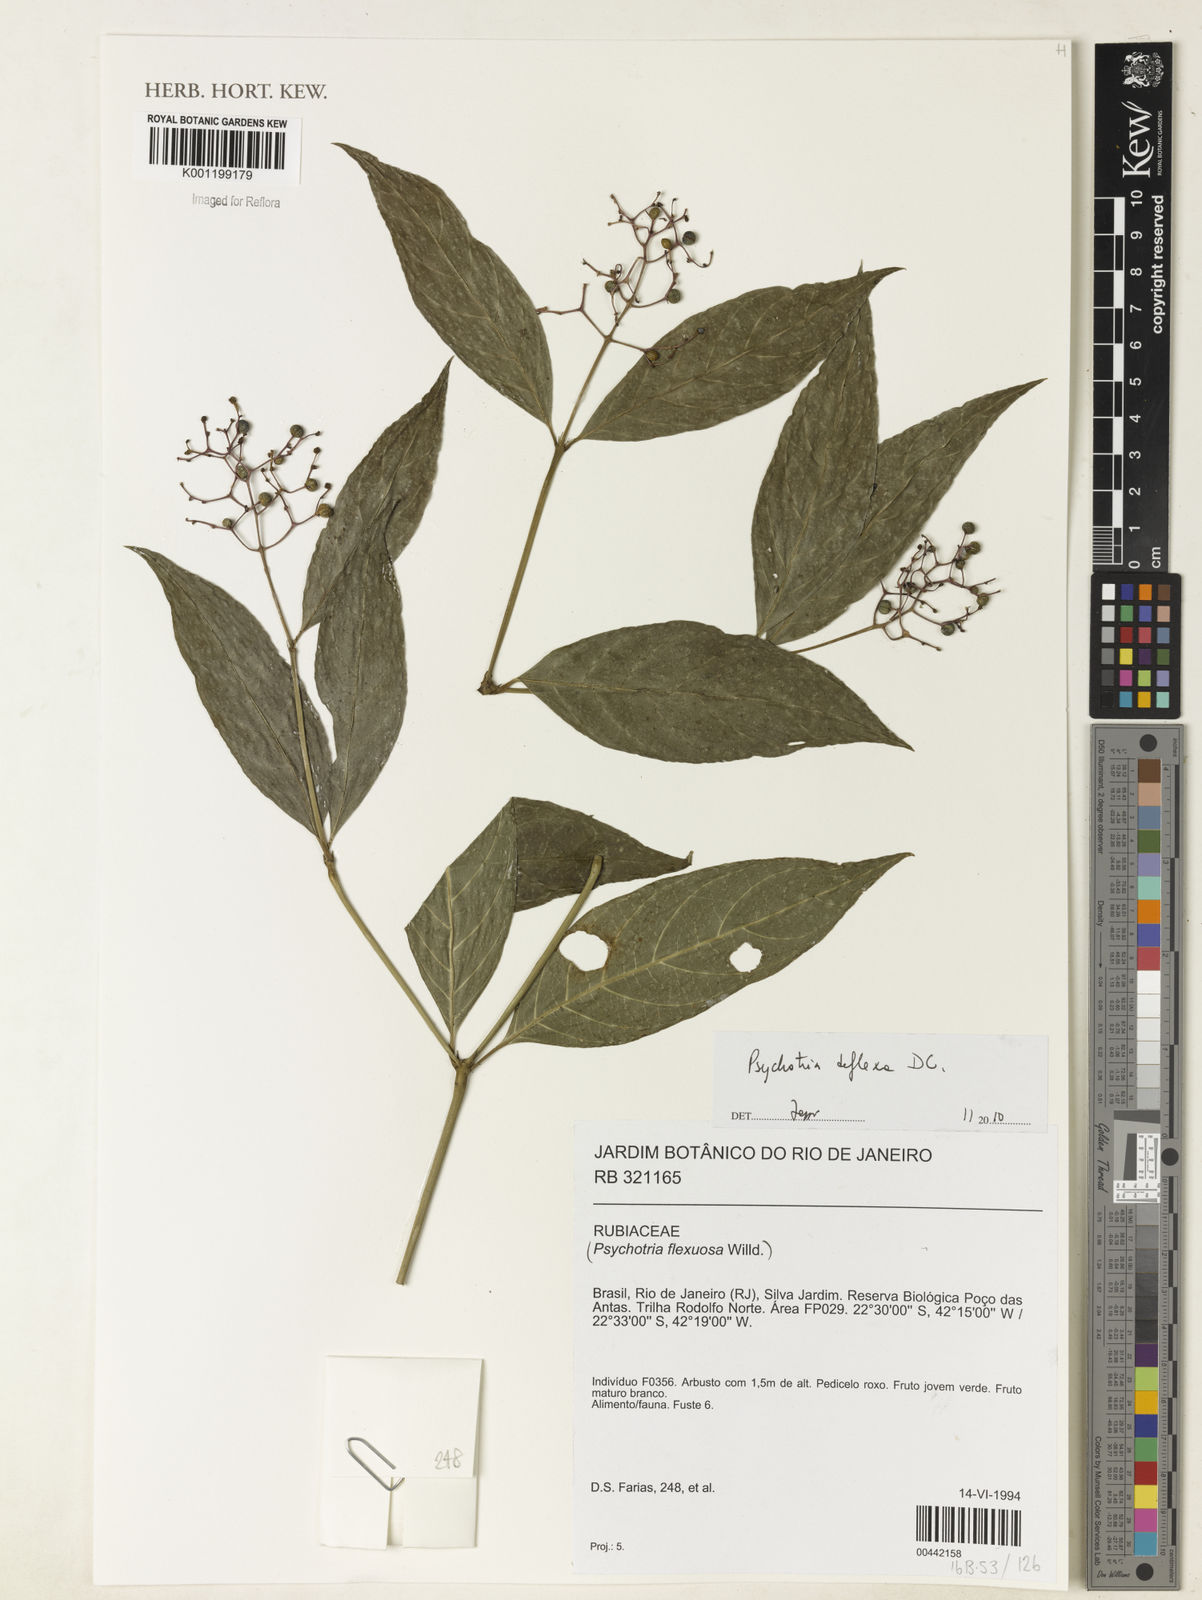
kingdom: Plantae
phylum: Tracheophyta
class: Magnoliopsida
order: Gentianales
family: Rubiaceae
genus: Palicourea
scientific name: Palicourea deflexa
